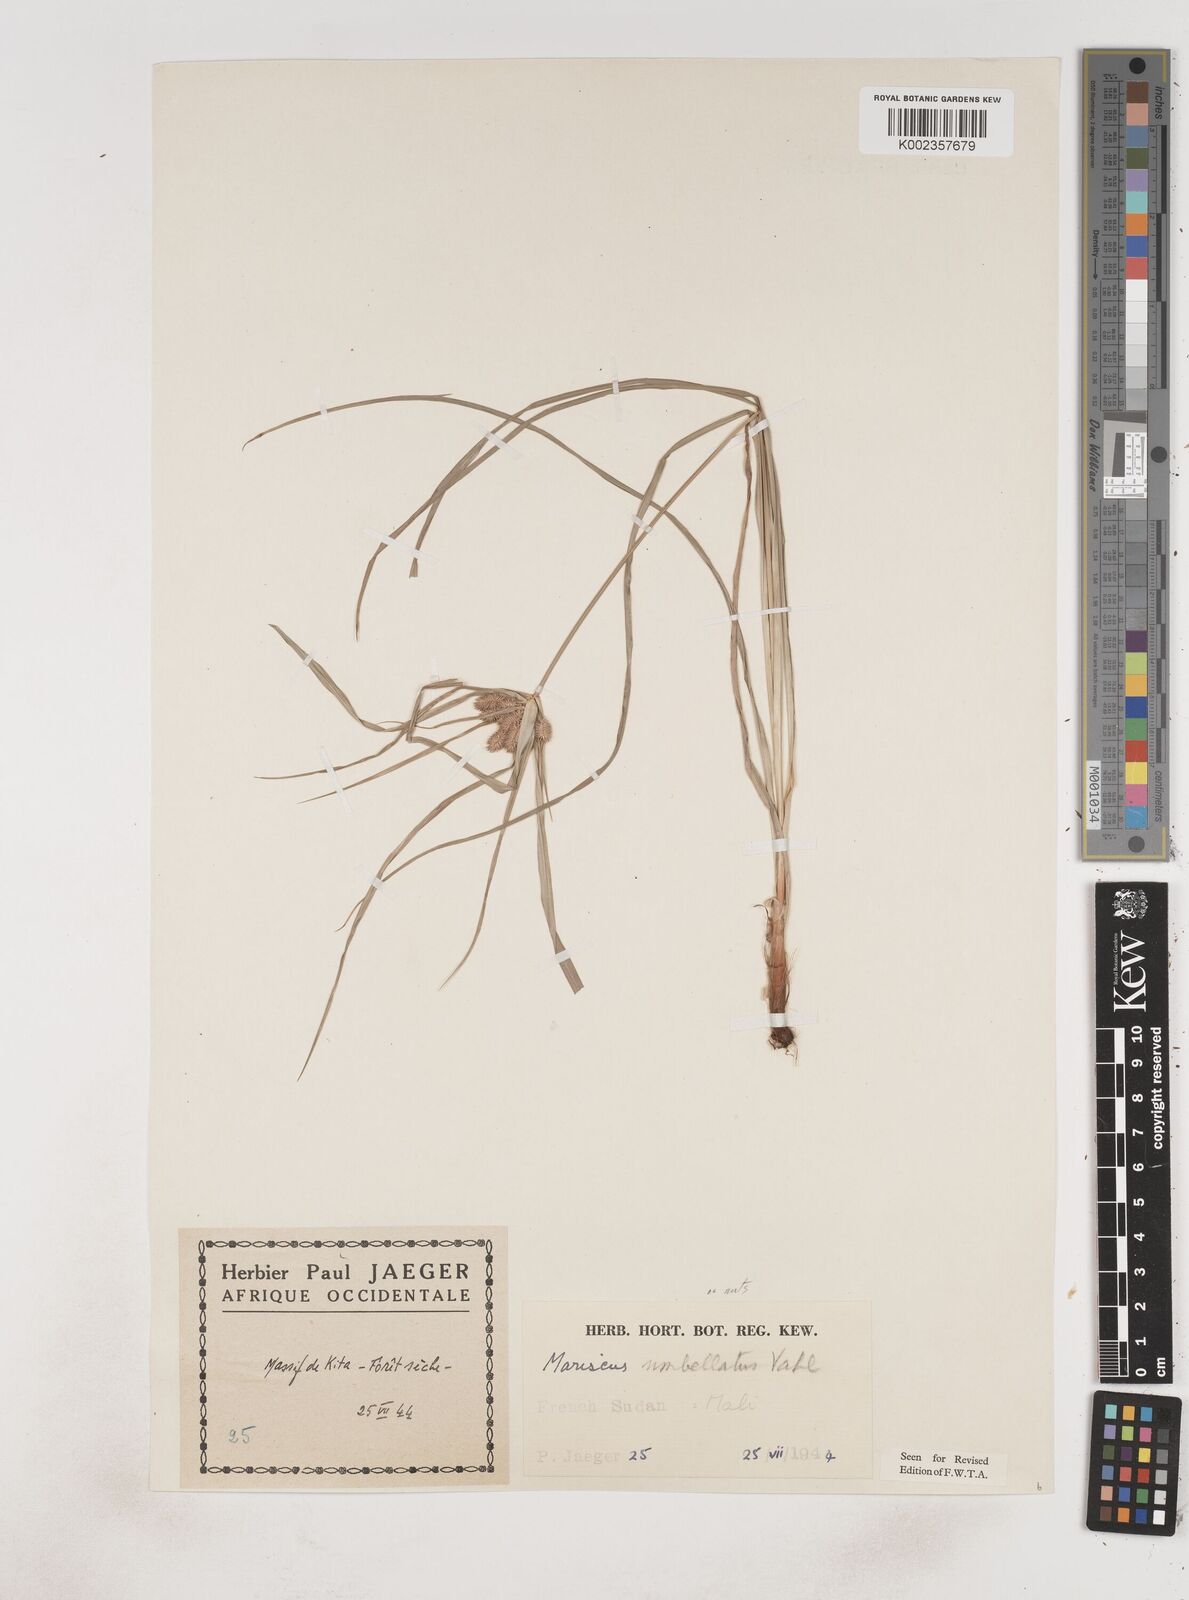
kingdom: Plantae
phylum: Tracheophyta
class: Liliopsida
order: Poales
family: Cyperaceae
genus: Cyperus
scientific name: Cyperus sublimis
